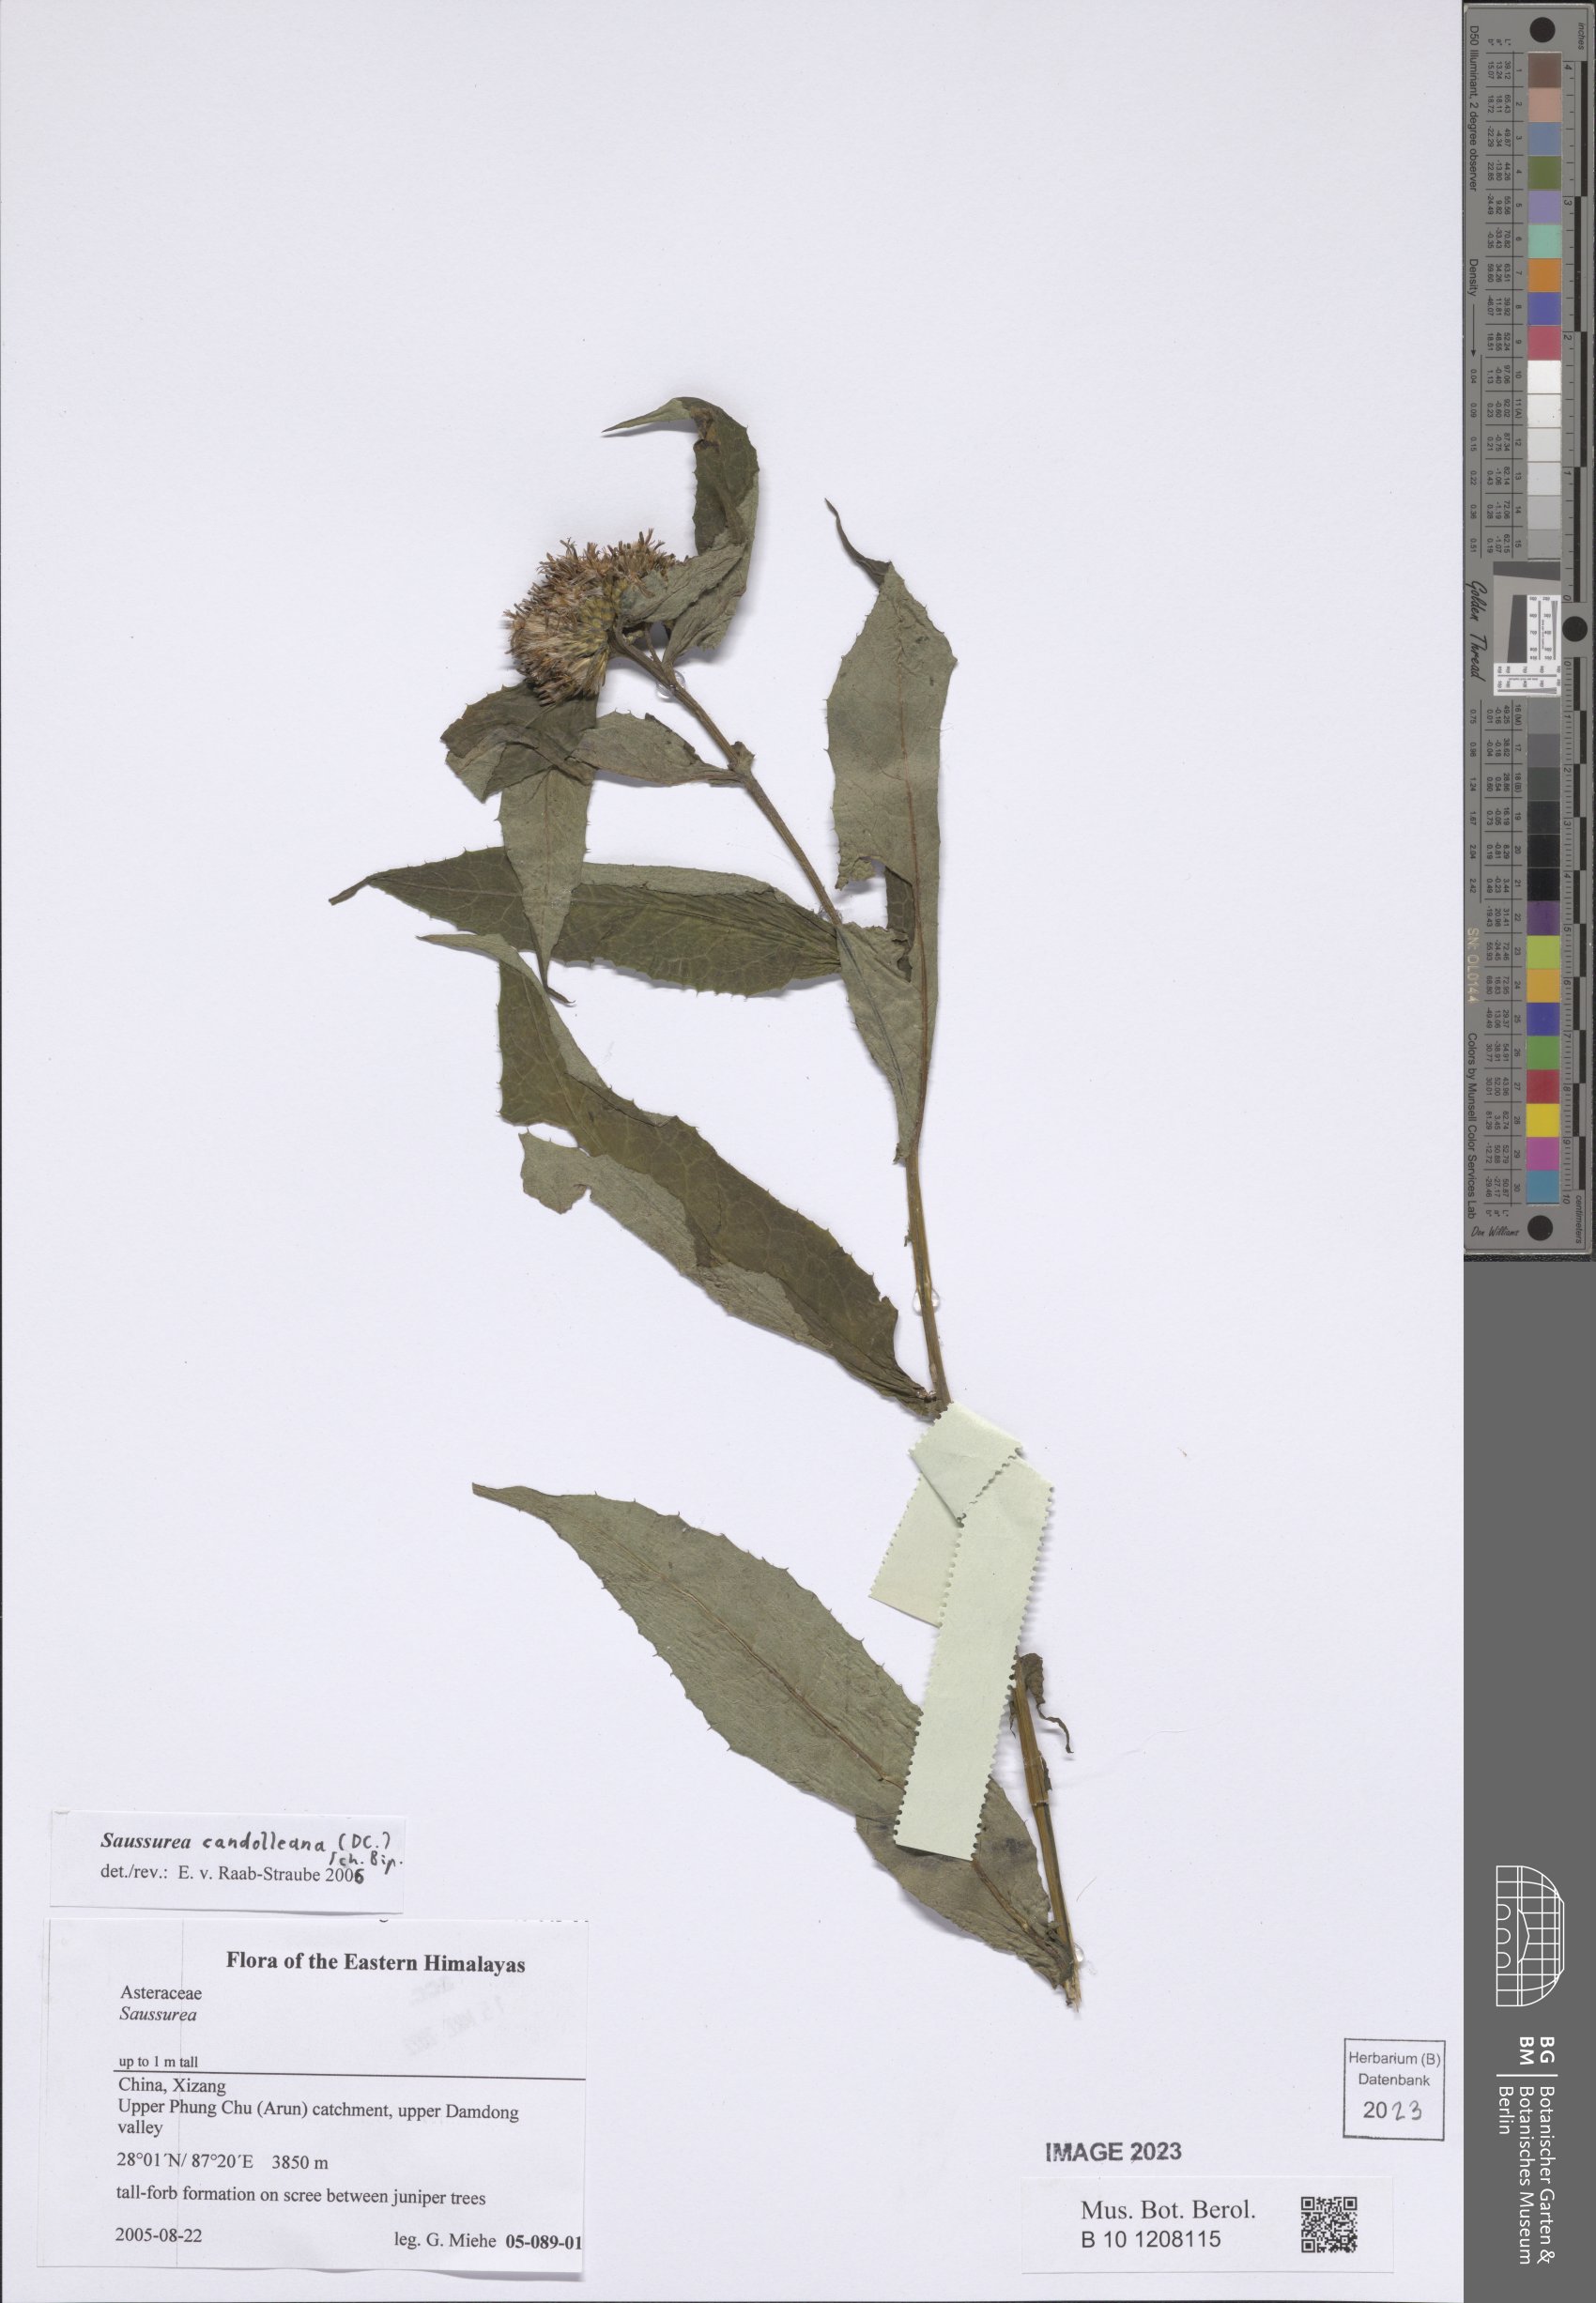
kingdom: Plantae
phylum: Tracheophyta
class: Magnoliopsida
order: Asterales
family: Asteraceae
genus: Saussurea
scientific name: Saussurea candolleana
